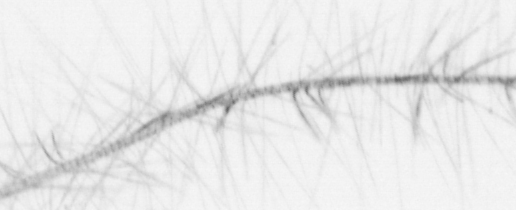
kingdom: Chromista
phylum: Ochrophyta
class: Bacillariophyceae
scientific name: Bacillariophyceae
